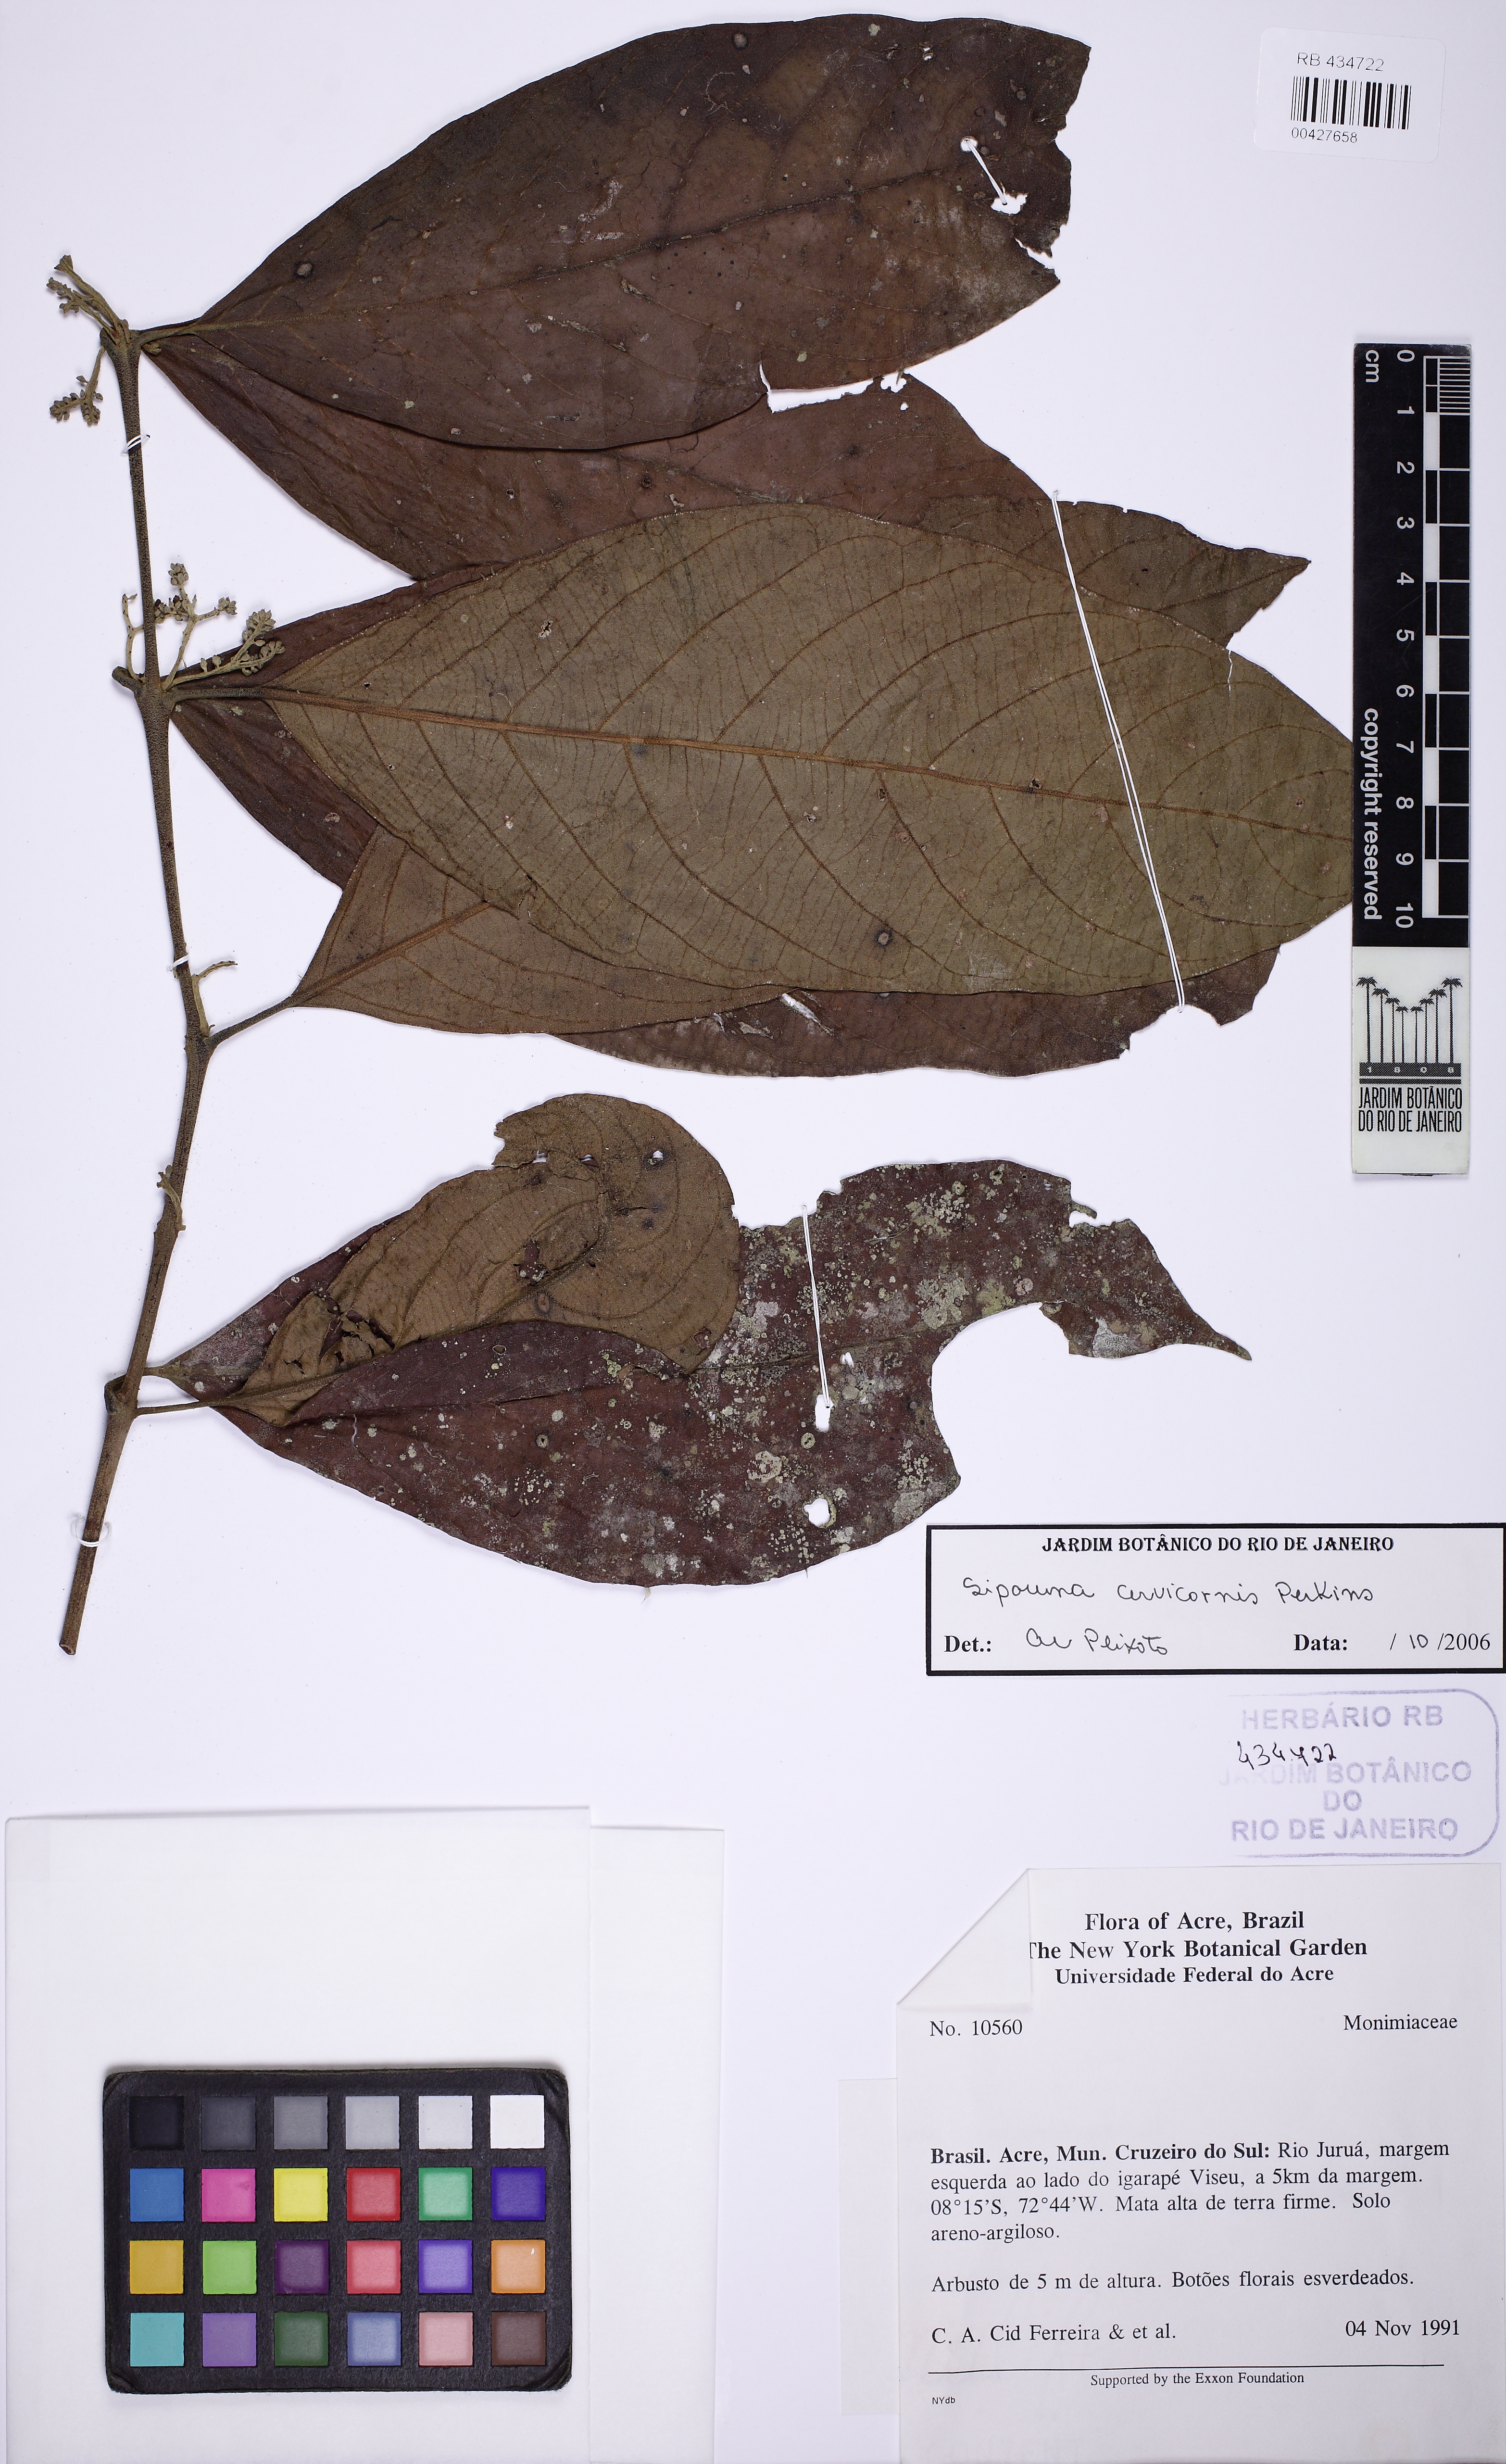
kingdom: Plantae
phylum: Tracheophyta
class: Magnoliopsida
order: Laurales
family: Siparunaceae
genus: Siparuna
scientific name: Siparuna cervicornis
